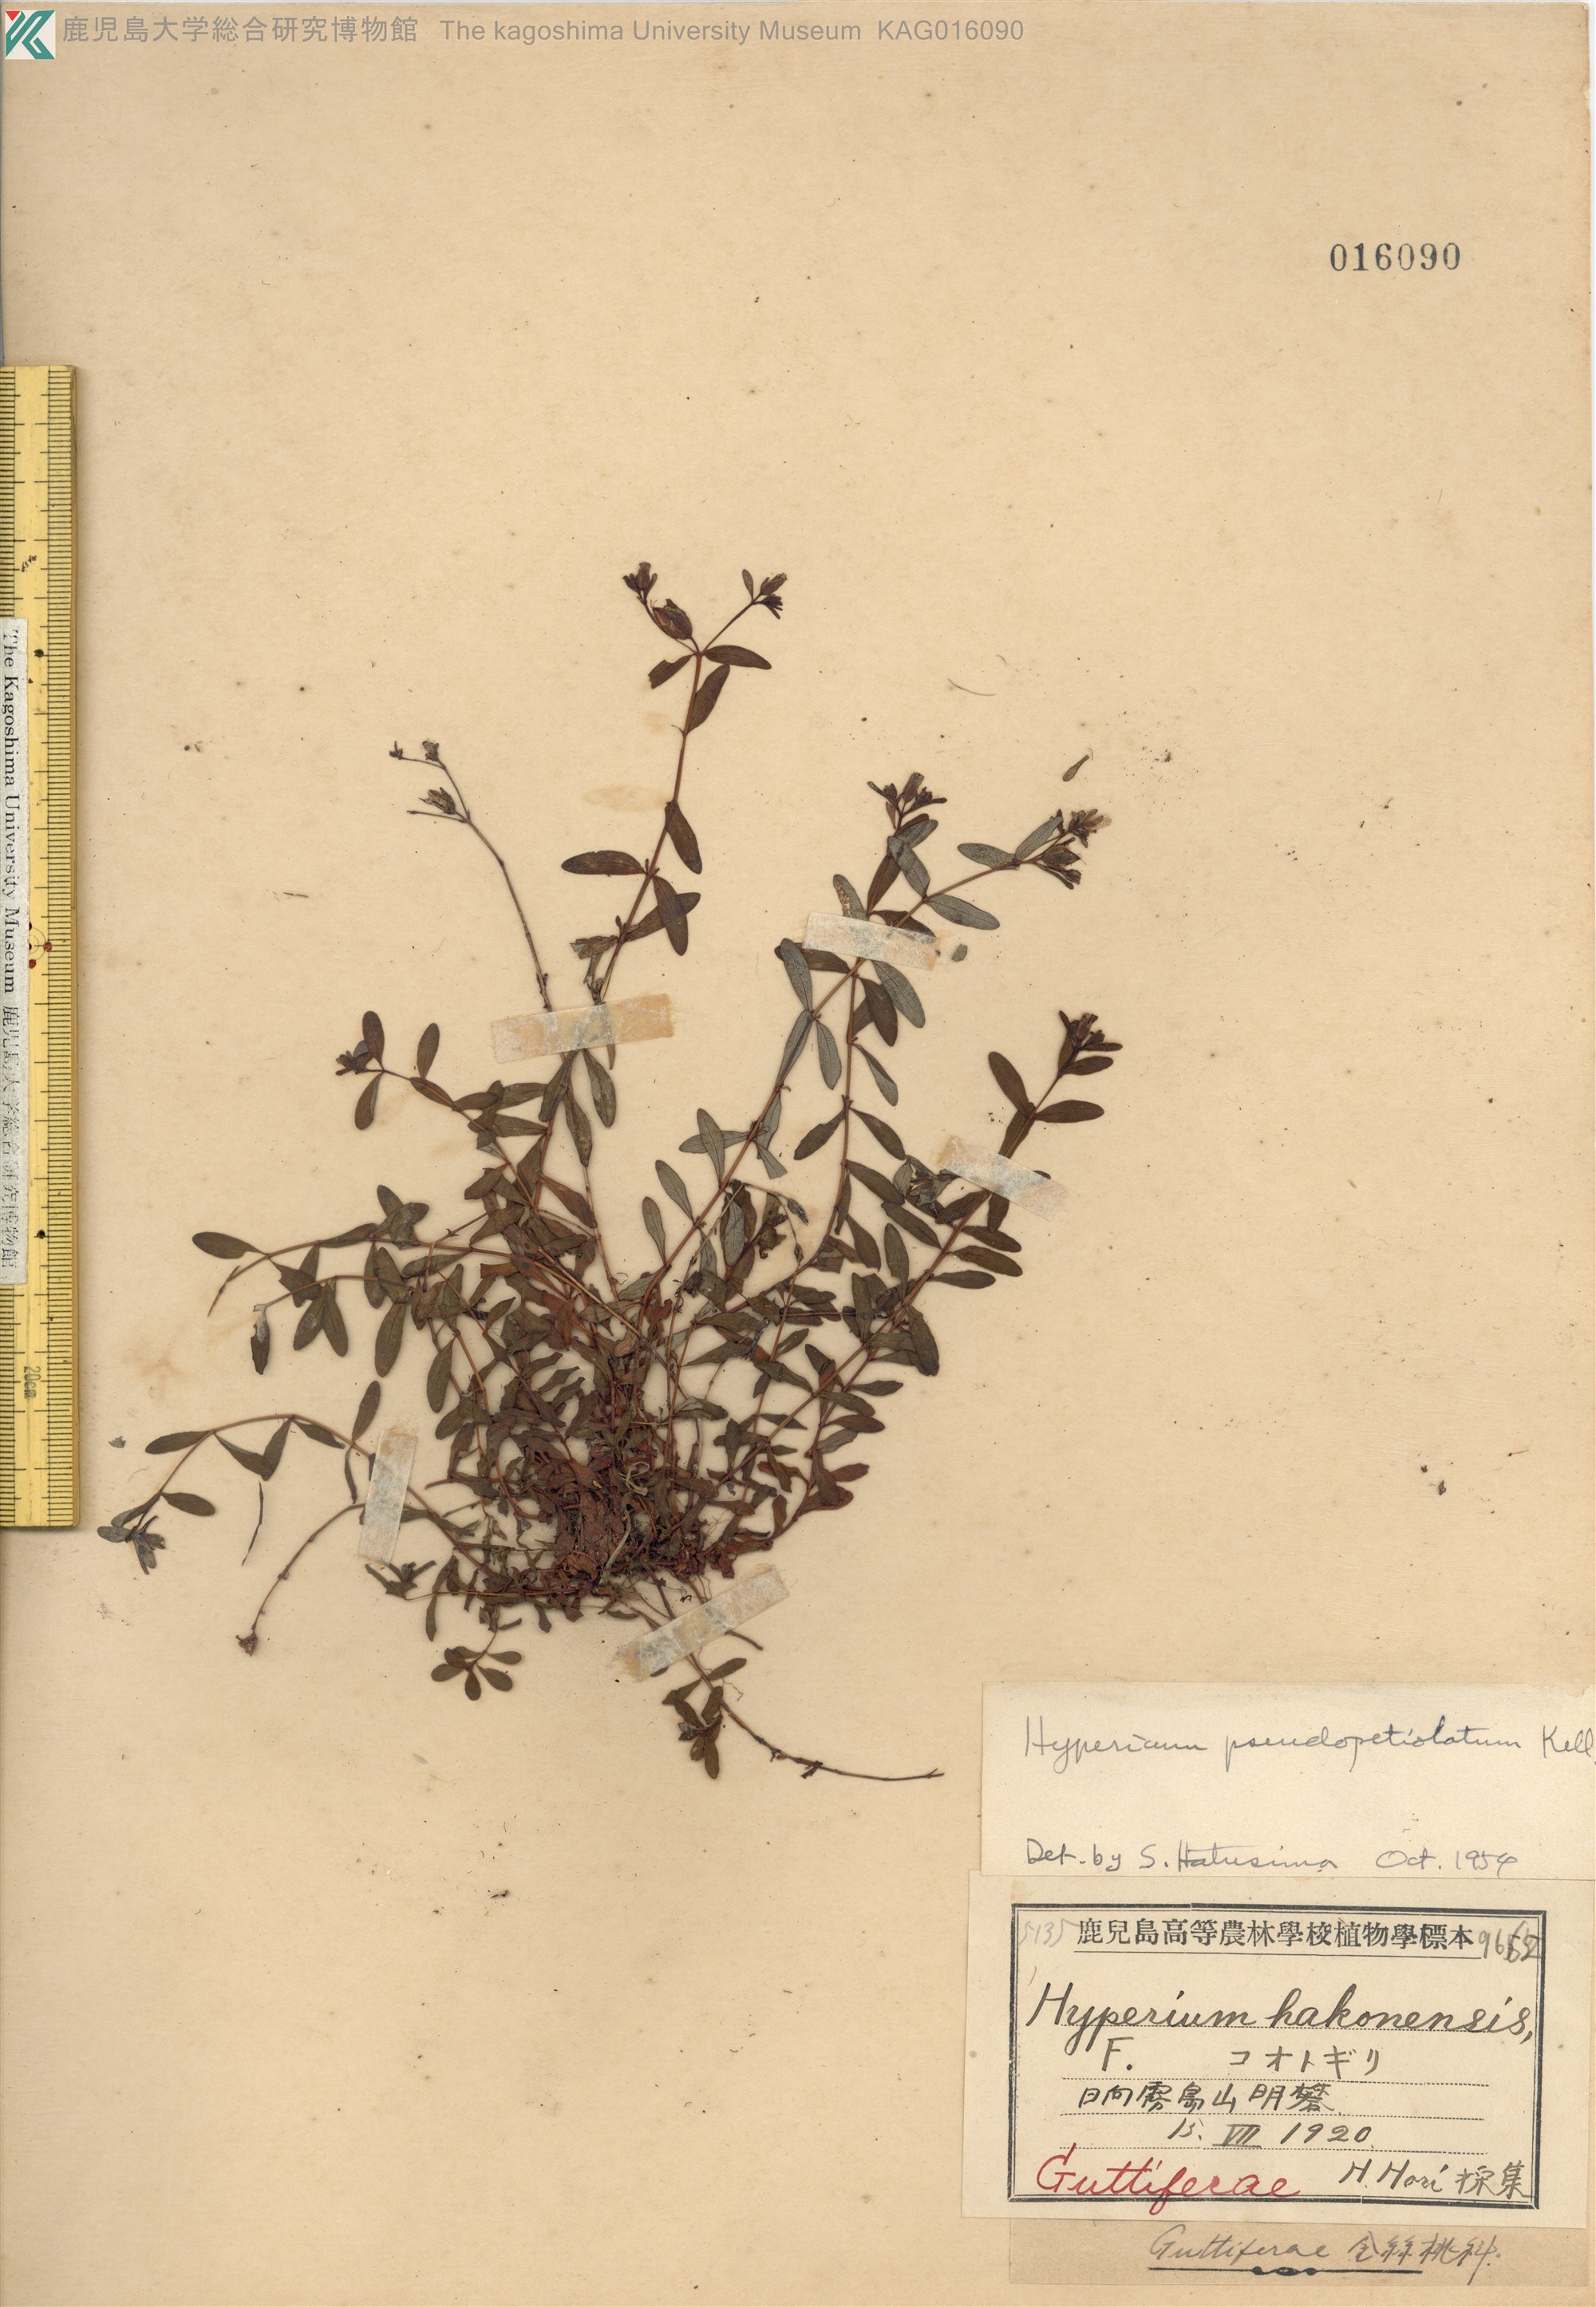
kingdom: Plantae
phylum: Tracheophyta
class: Magnoliopsida
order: Malpighiales
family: Hypericaceae
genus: Hypericum
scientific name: Hypericum pseudopetiolatum
